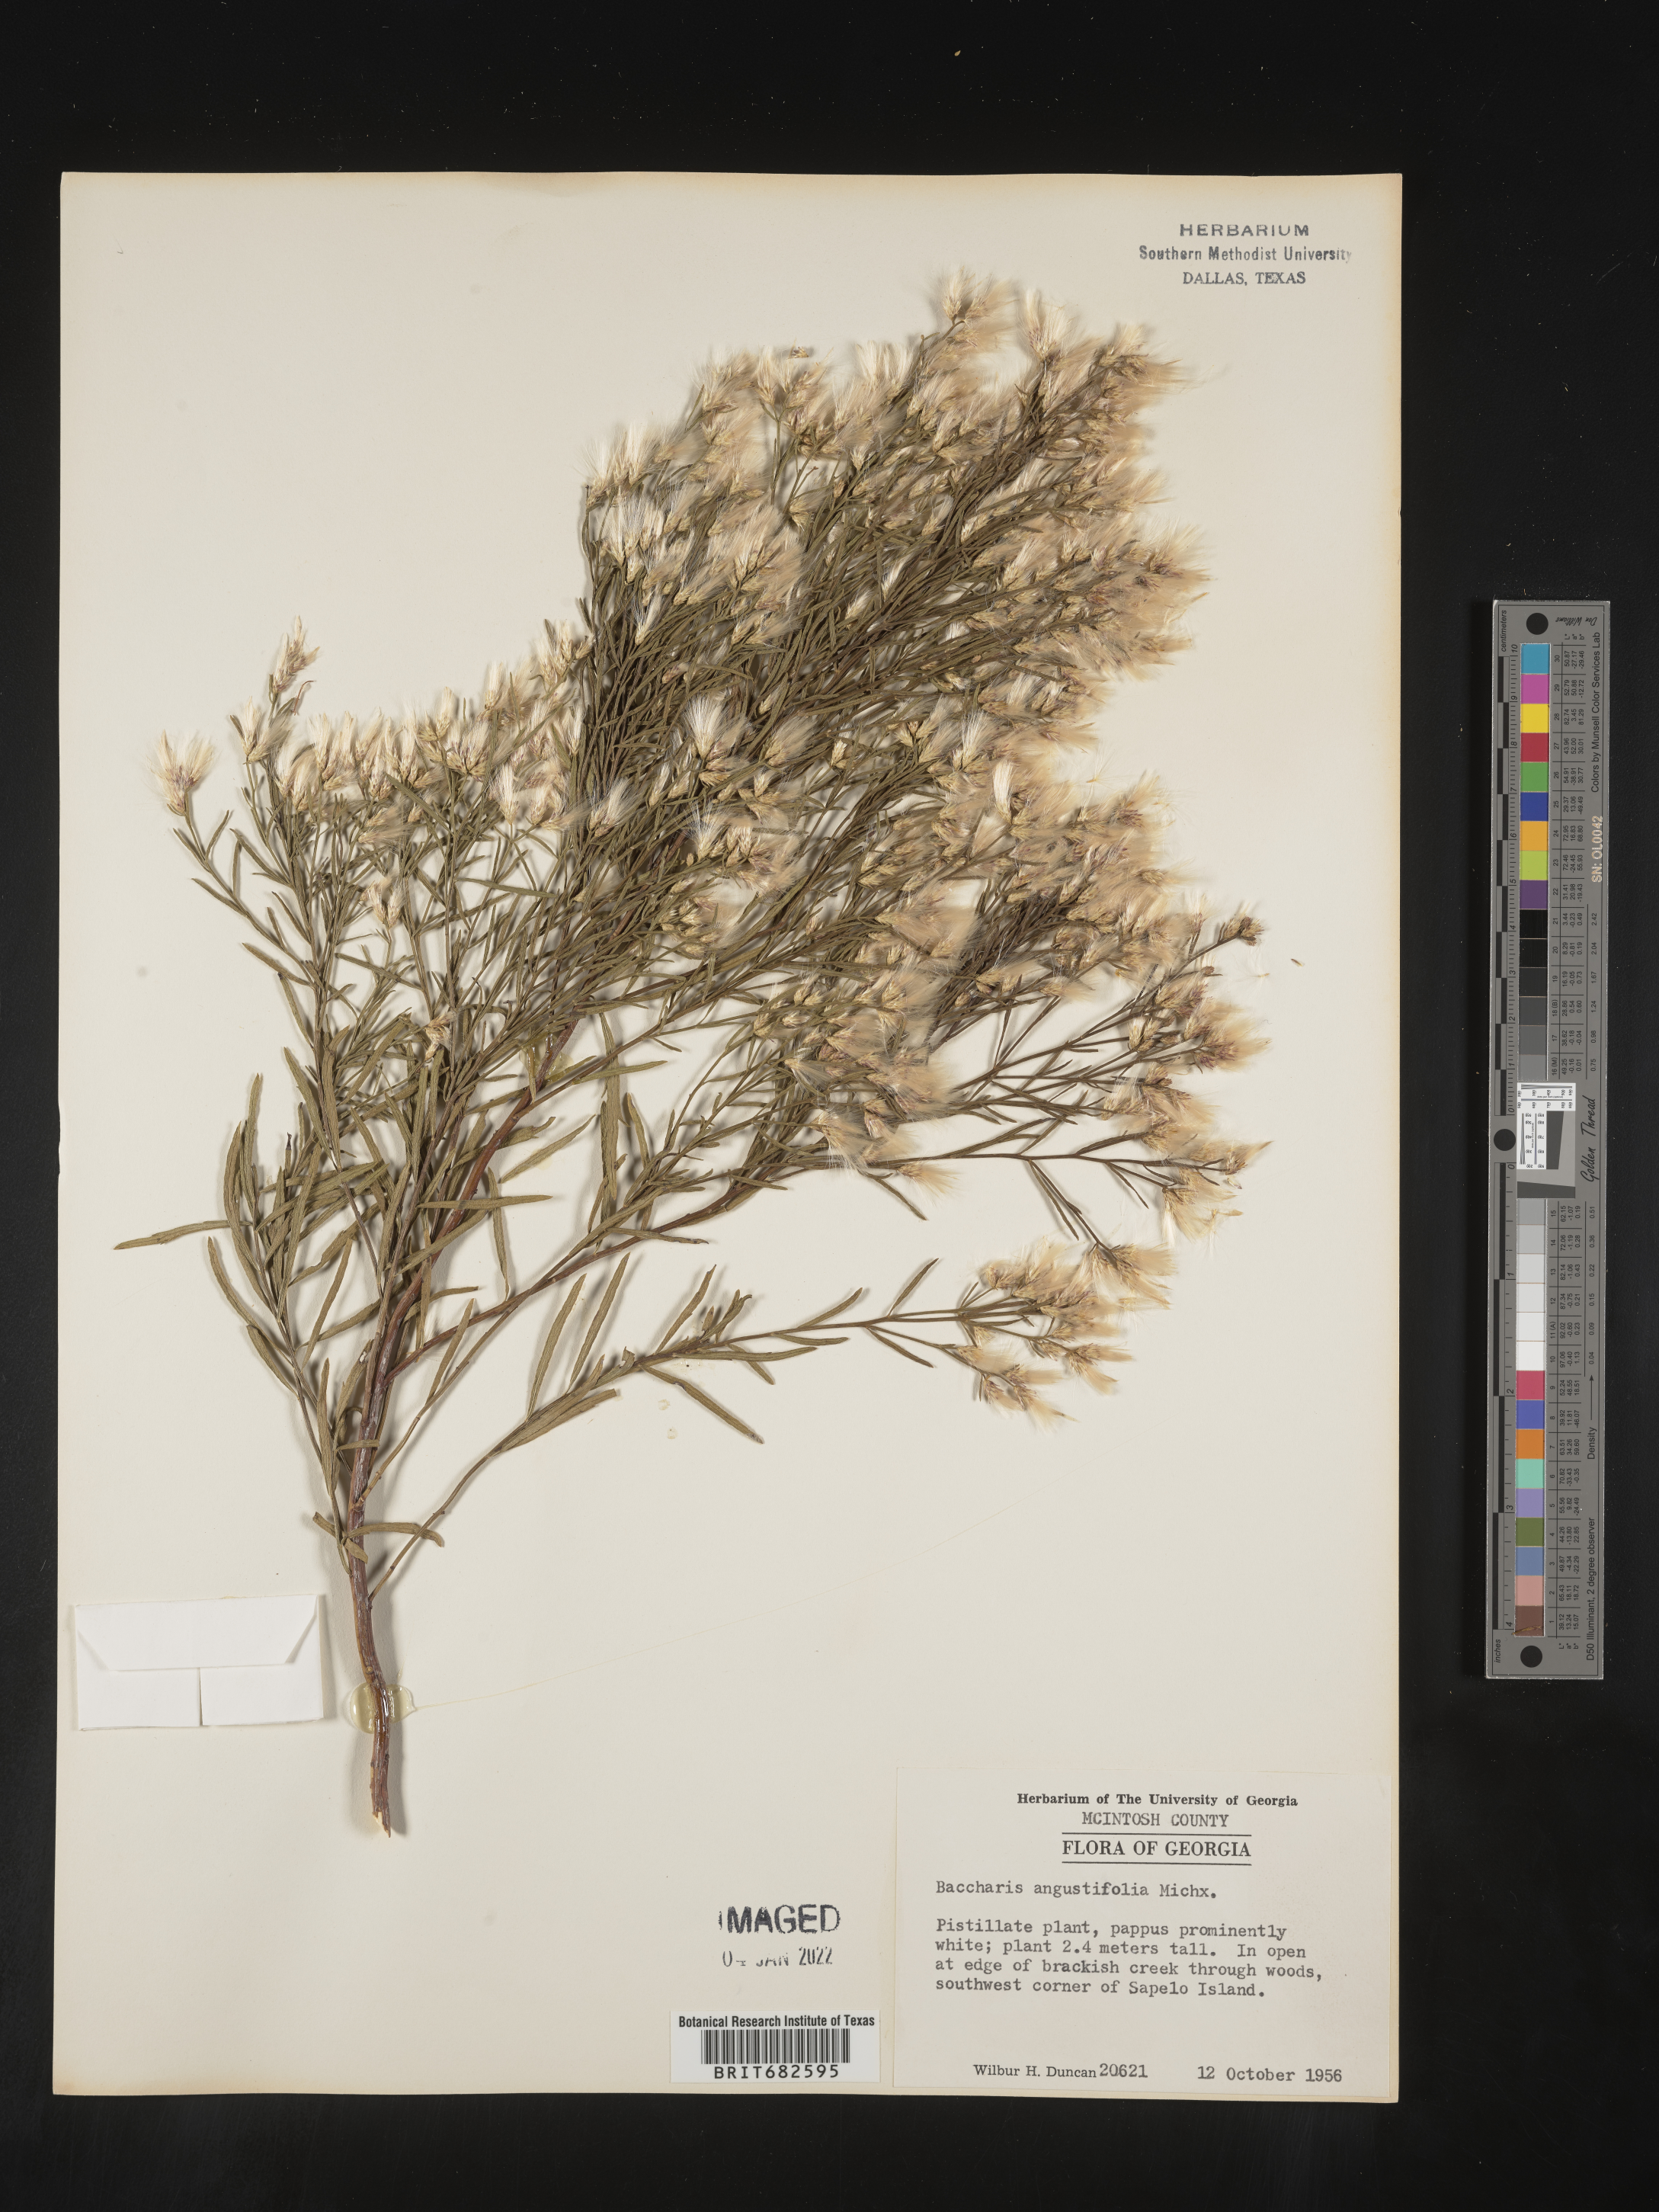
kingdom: Plantae
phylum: Tracheophyta
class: Magnoliopsida
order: Asterales
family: Asteraceae
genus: Baccharis
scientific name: Baccharis angustifolia
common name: Narrow-leaf baccharis
